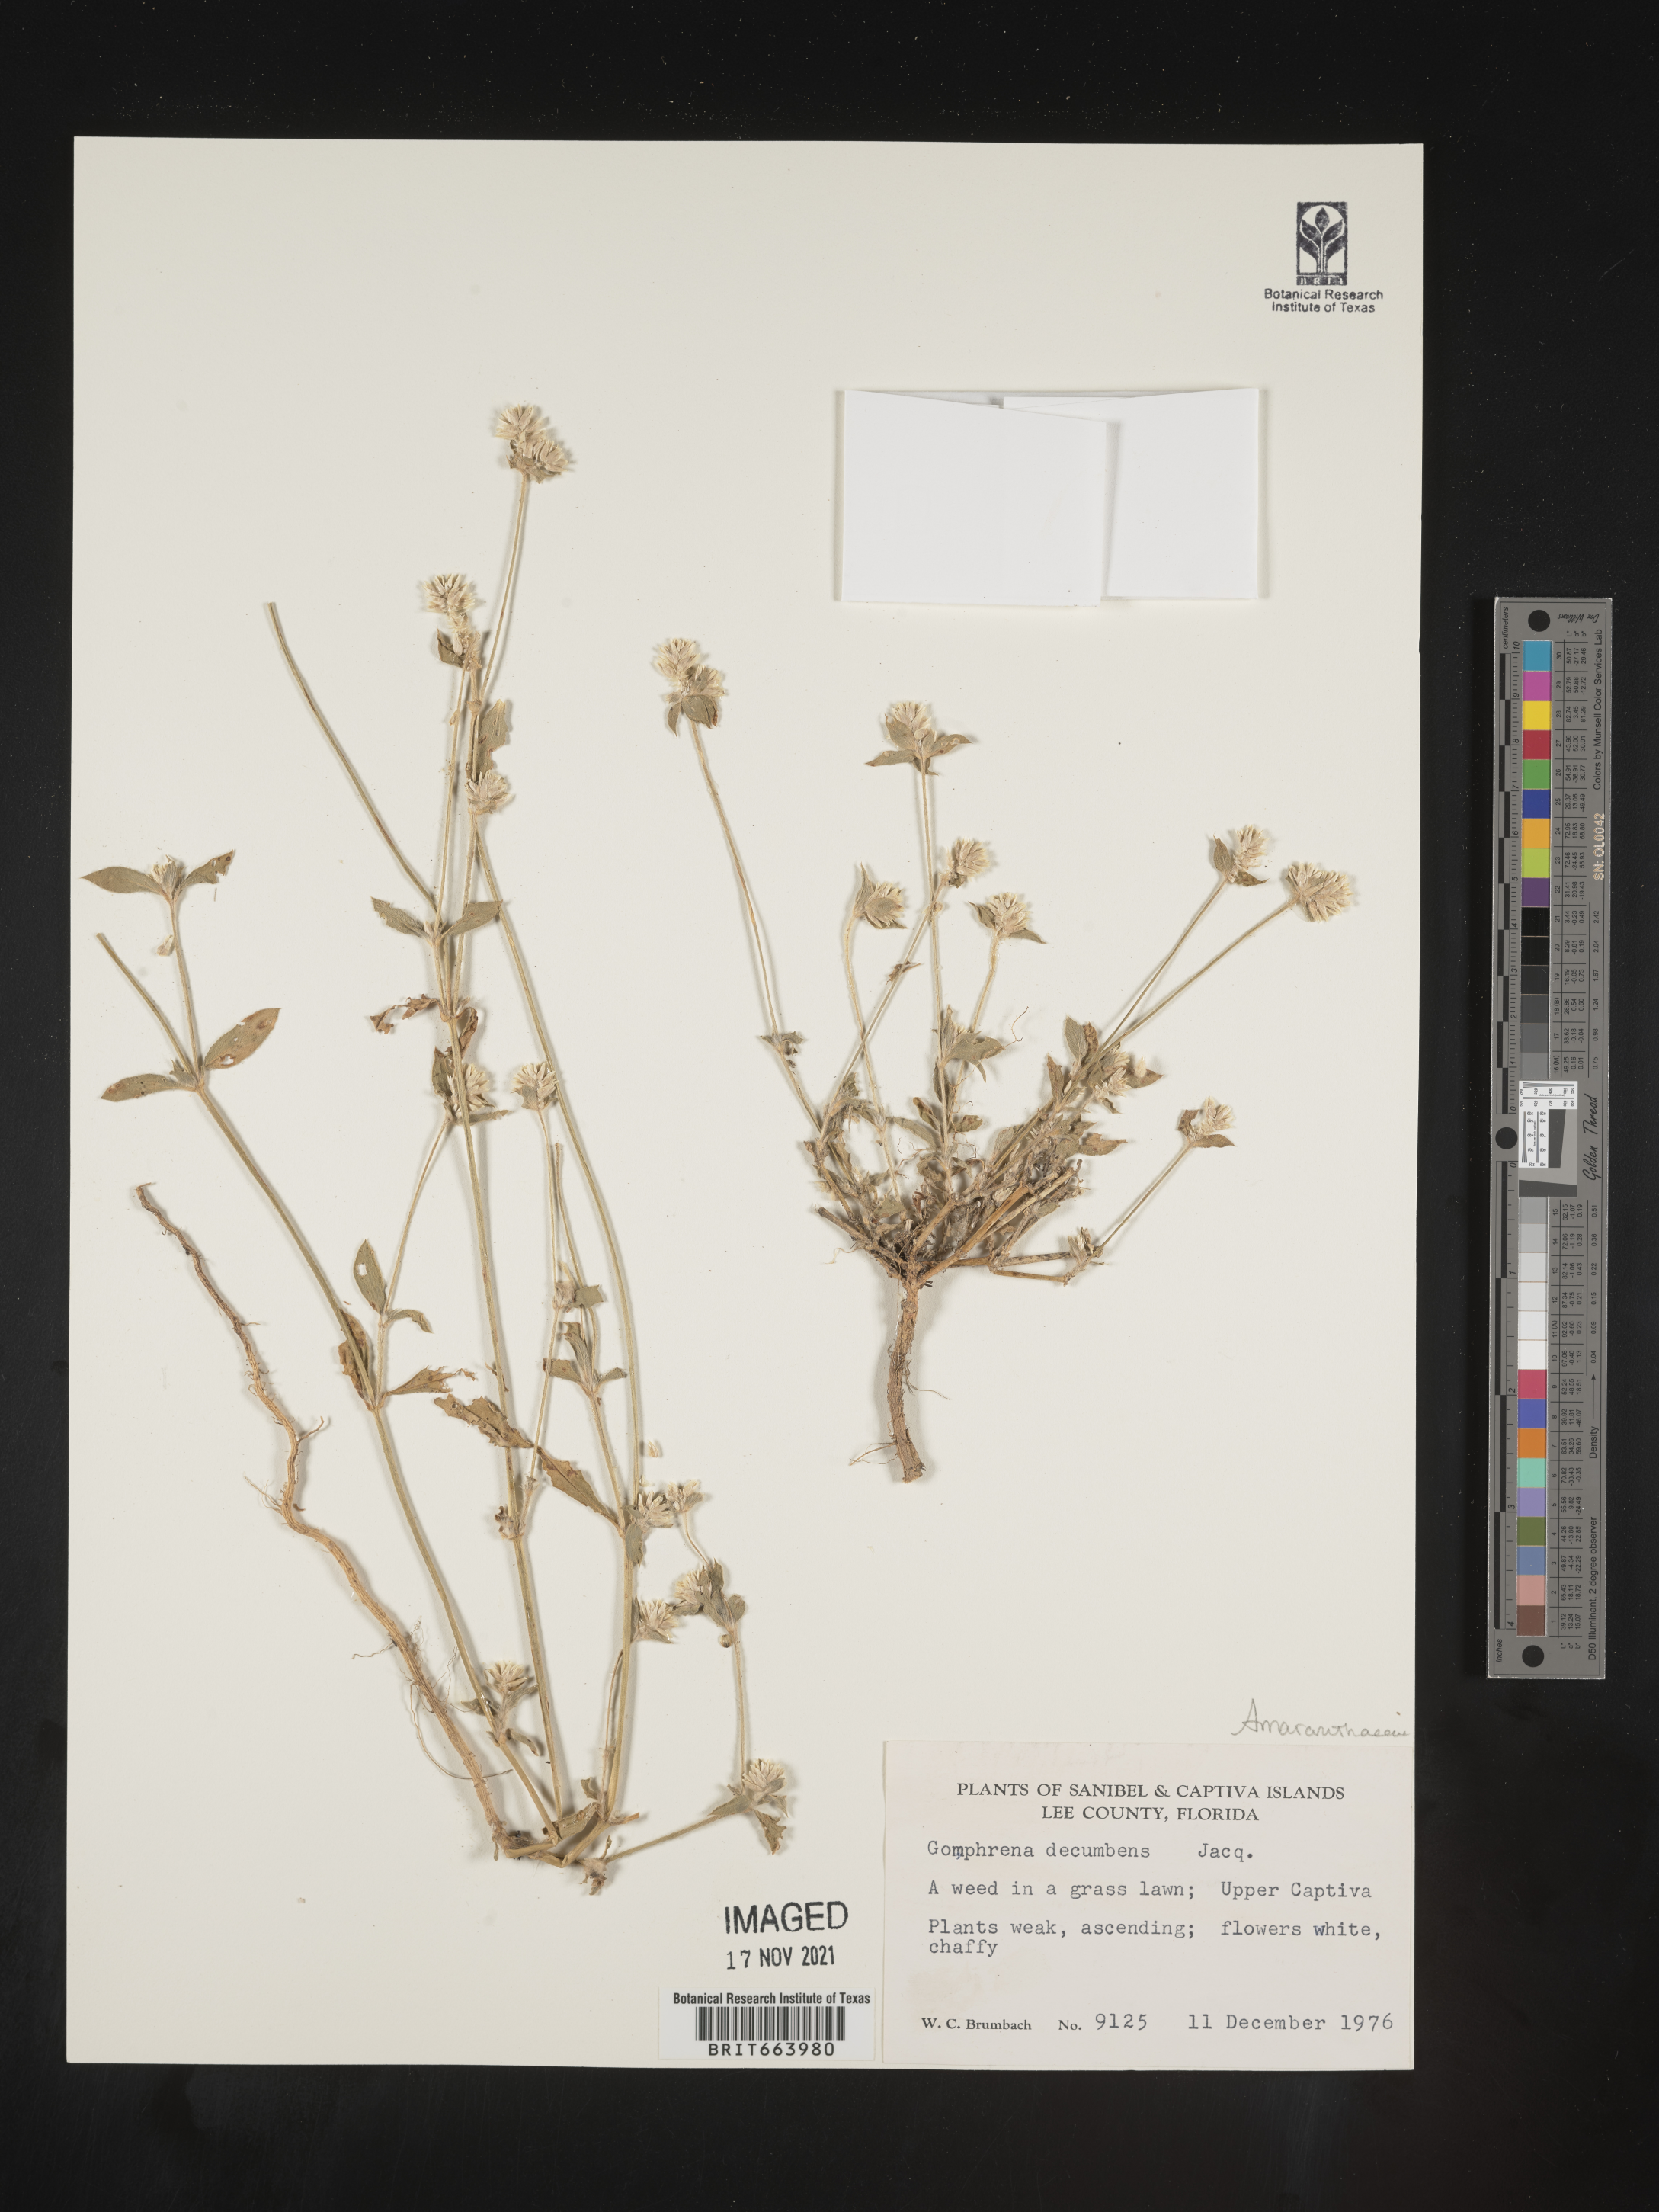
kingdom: Plantae
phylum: Tracheophyta
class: Magnoliopsida
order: Caryophyllales
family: Amaranthaceae
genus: Gomphrena
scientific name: Gomphrena
